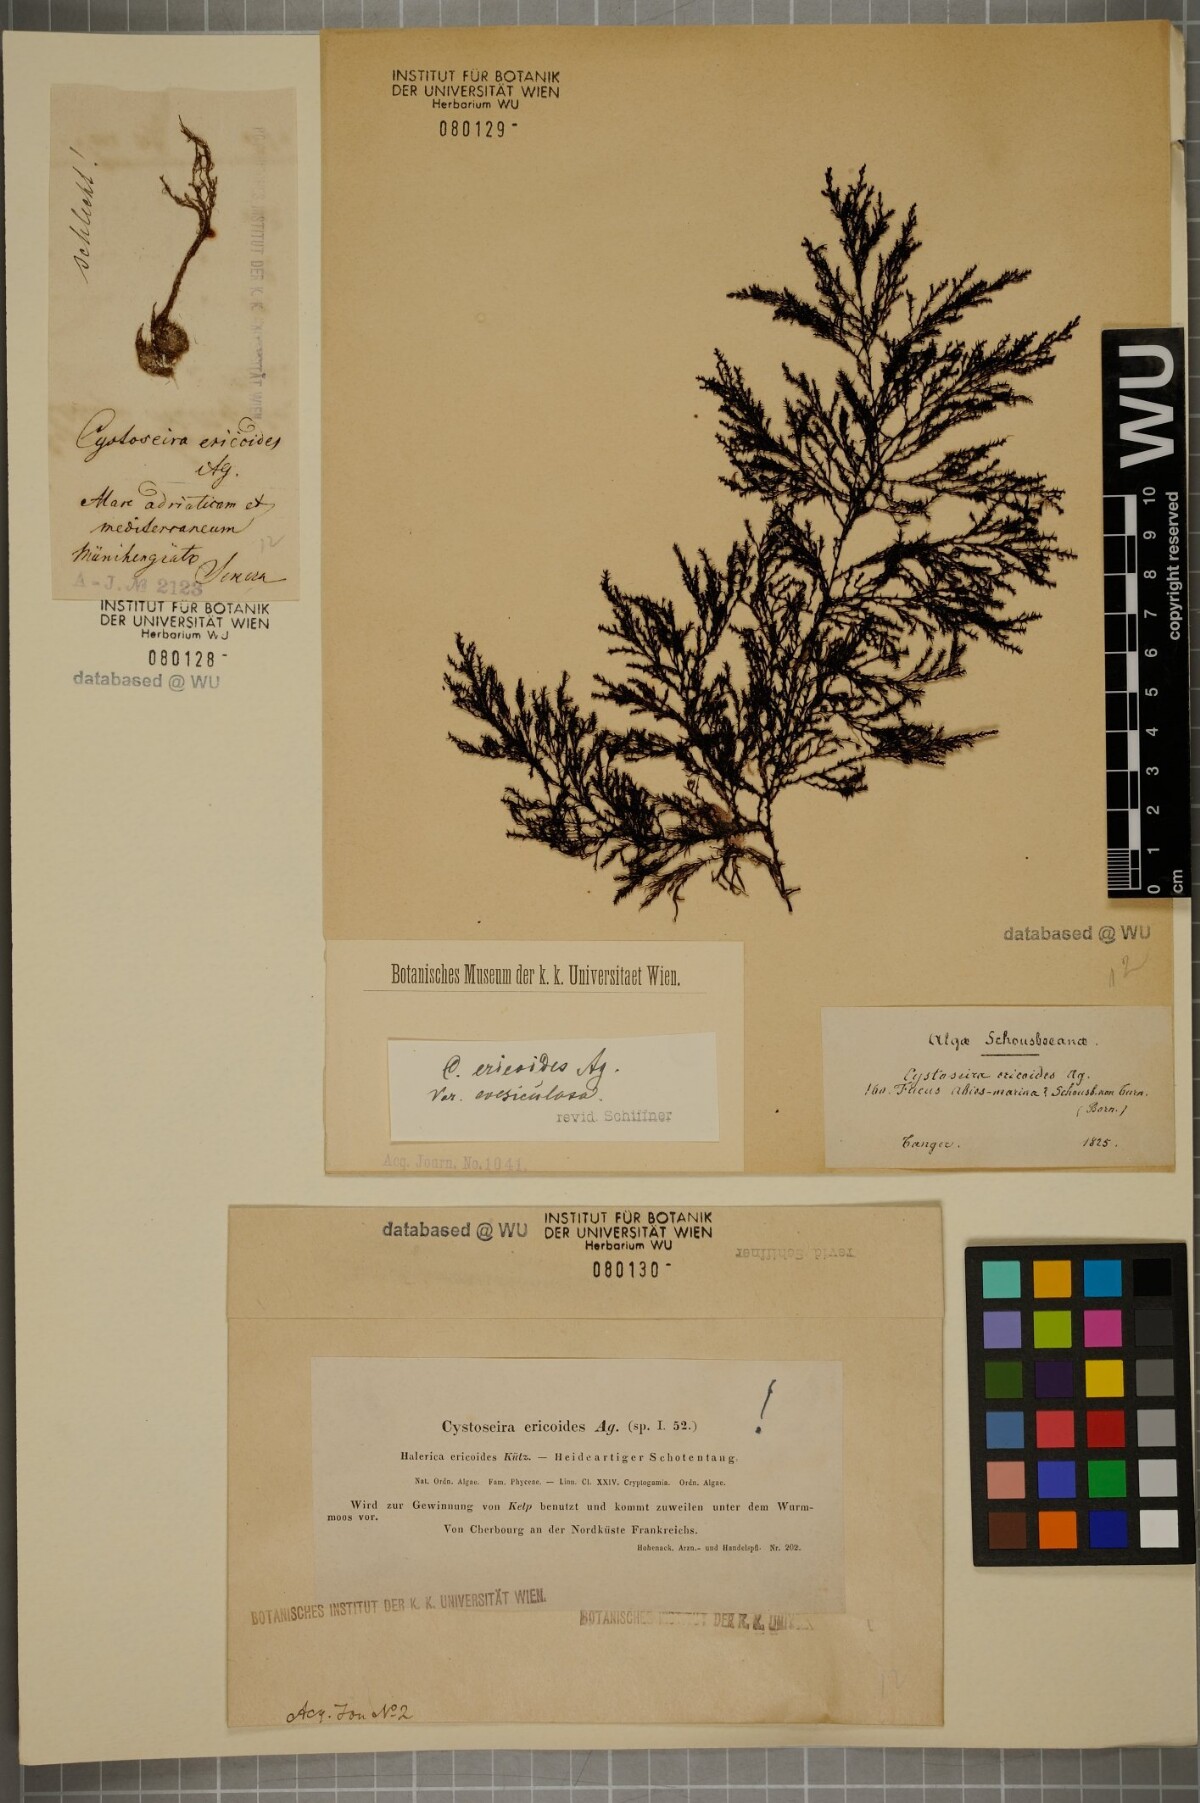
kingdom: Chromista
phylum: Ochrophyta
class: Phaeophyceae
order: Fucales
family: Sargassaceae
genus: Cystoseira
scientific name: Cystoseira Ericaria selaginoides
